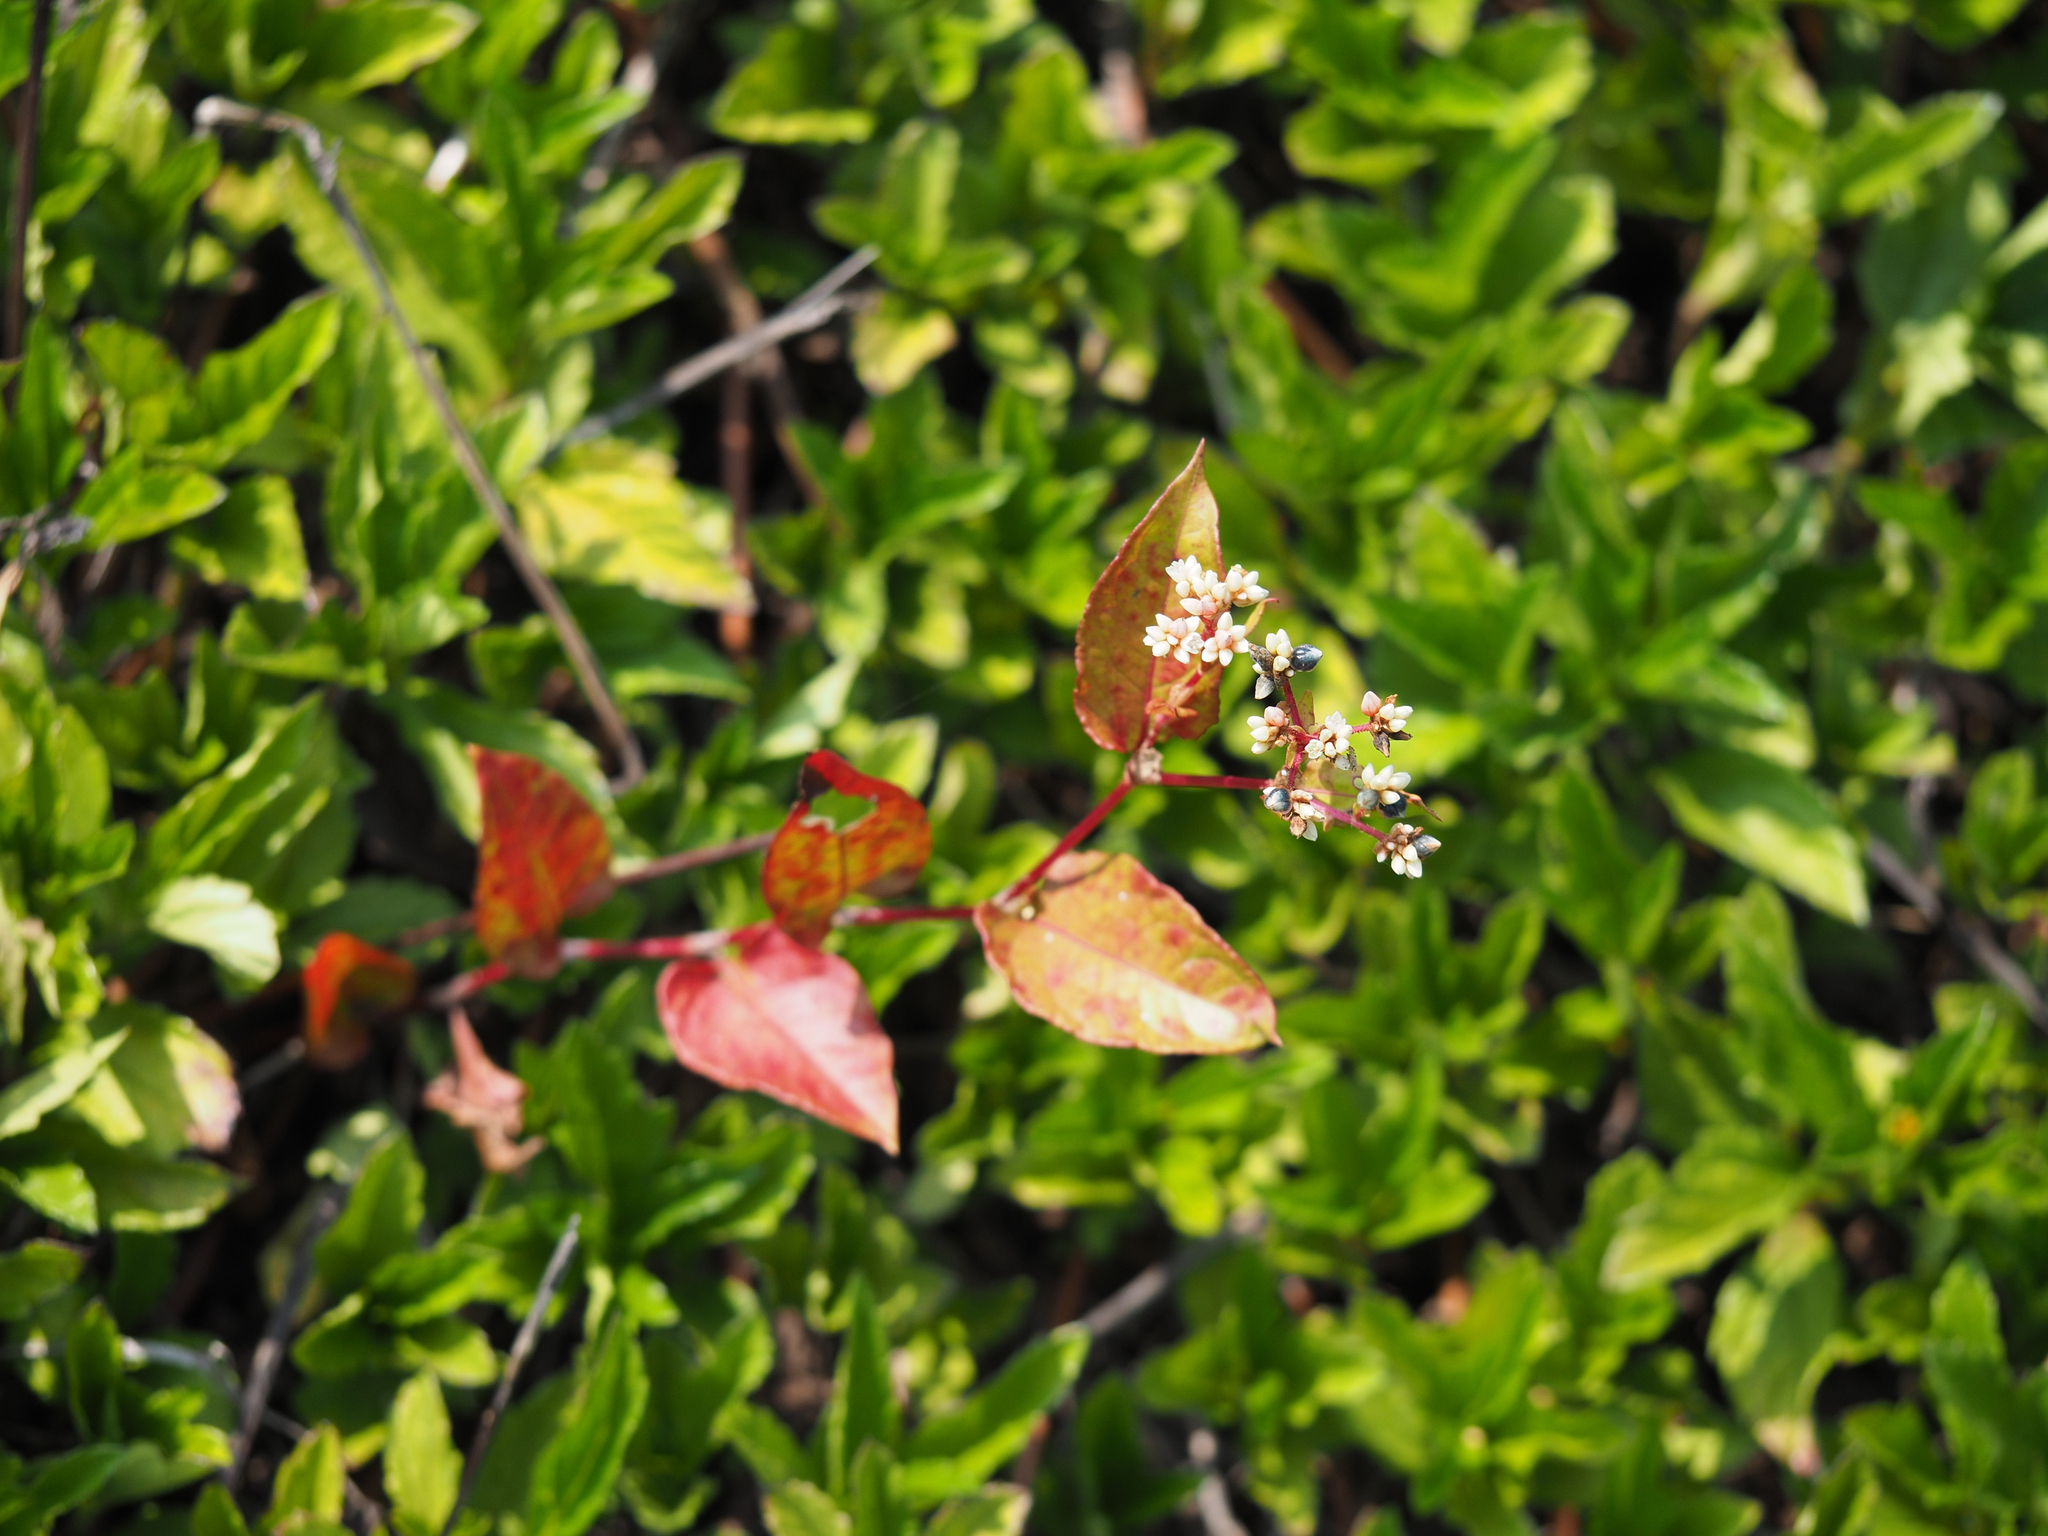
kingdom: Plantae
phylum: Tracheophyta
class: Magnoliopsida
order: Caryophyllales
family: Polygonaceae
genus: Persicaria
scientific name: Persicaria chinensis
